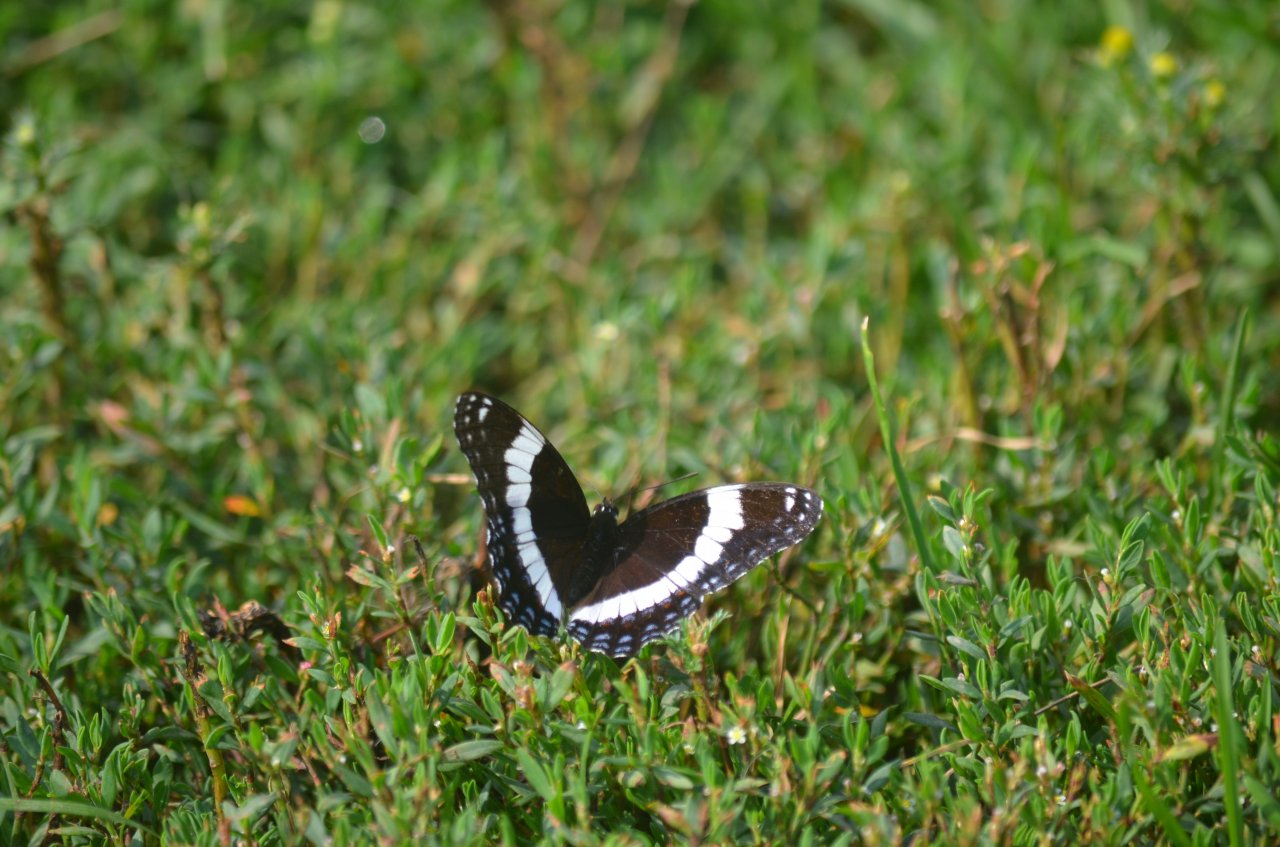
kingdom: Animalia
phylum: Arthropoda
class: Insecta
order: Lepidoptera
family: Nymphalidae
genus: Limenitis
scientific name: Limenitis arthemis
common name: Red-spotted Admiral
